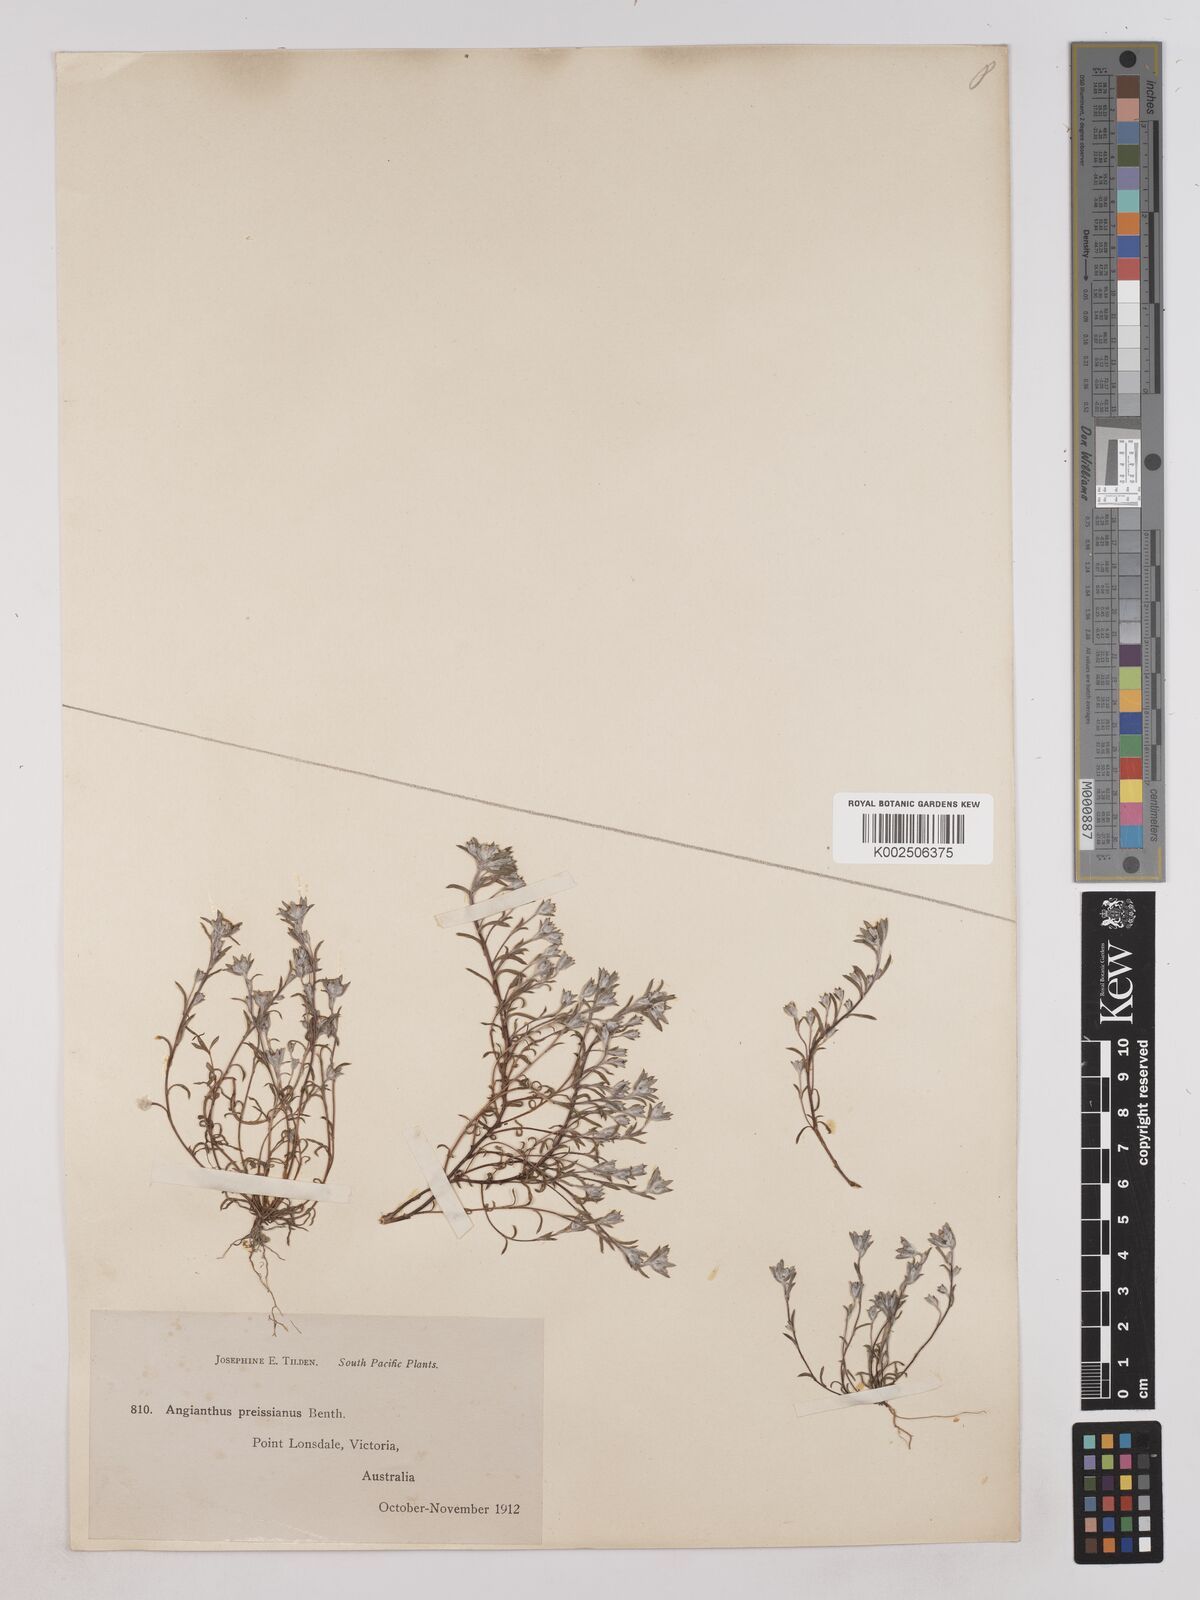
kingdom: Plantae
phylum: Tracheophyta
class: Magnoliopsida
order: Asterales
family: Asteraceae
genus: Angianthus
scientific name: Angianthus preissianus
